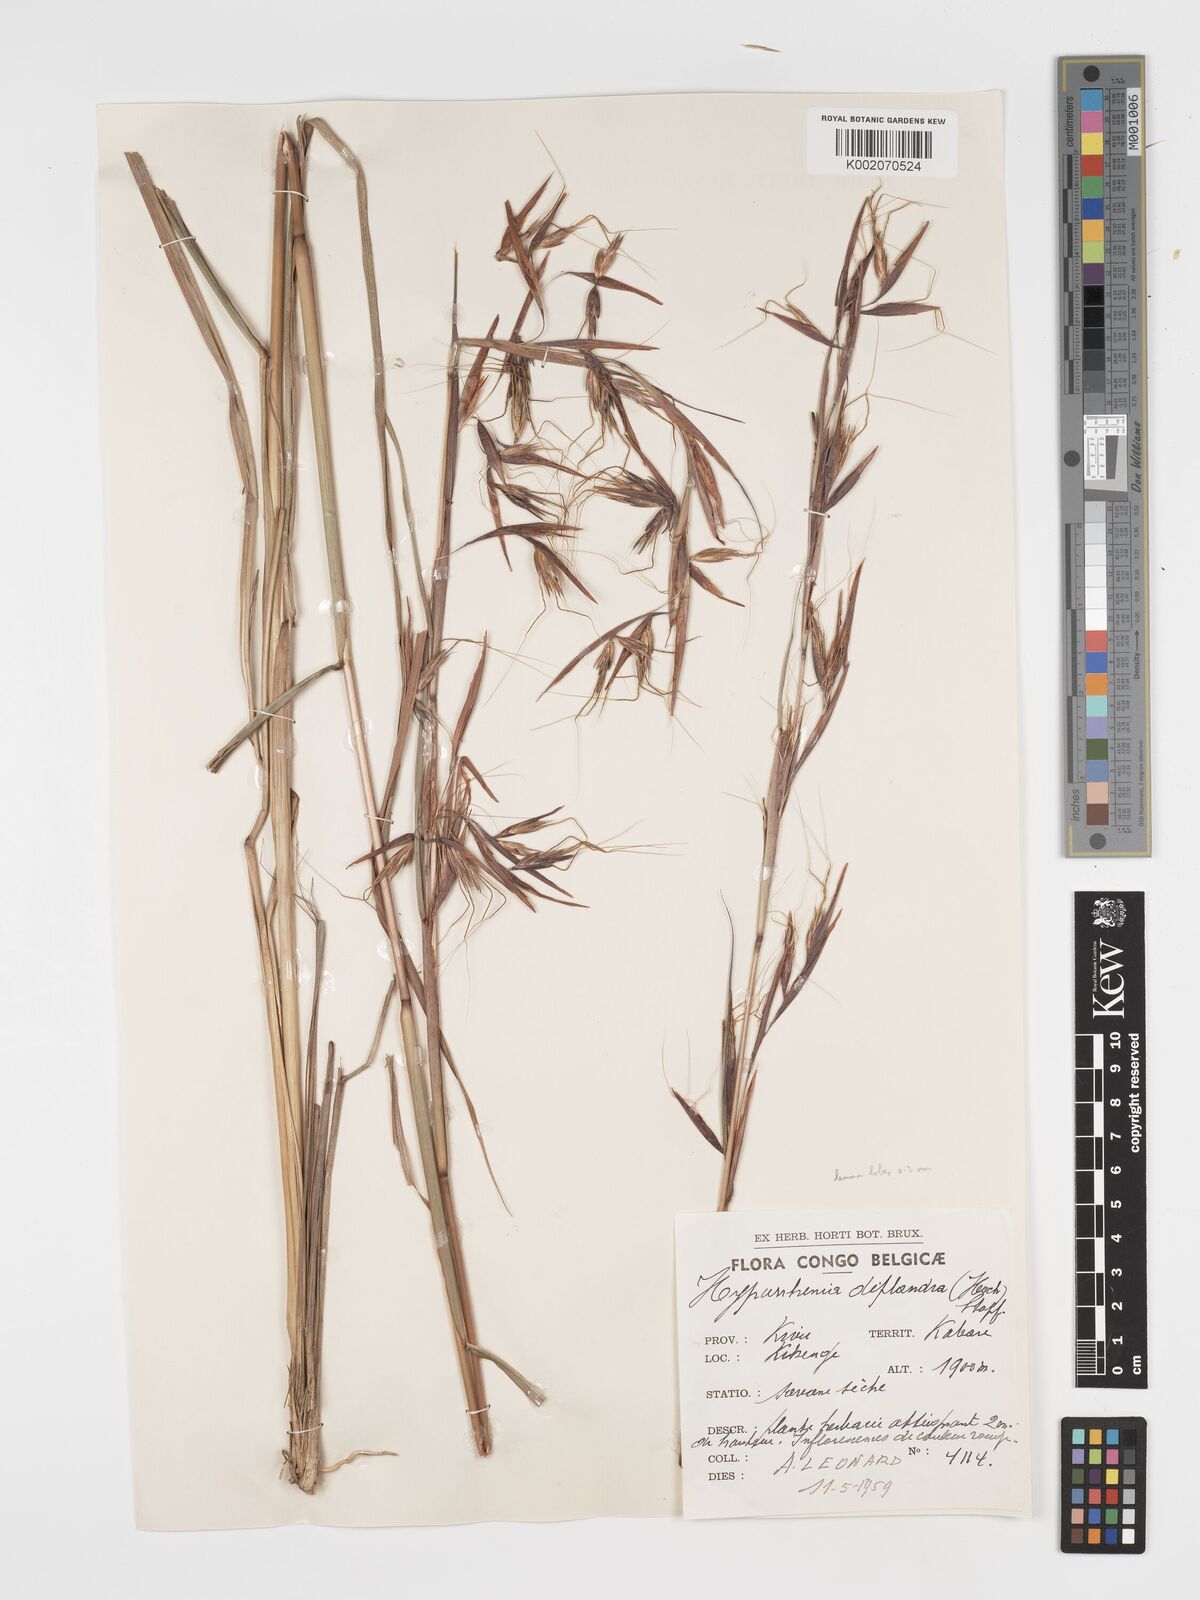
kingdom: Plantae
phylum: Tracheophyta
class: Liliopsida
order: Poales
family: Poaceae
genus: Hyparrhenia
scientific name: Hyparrhenia diplandra
